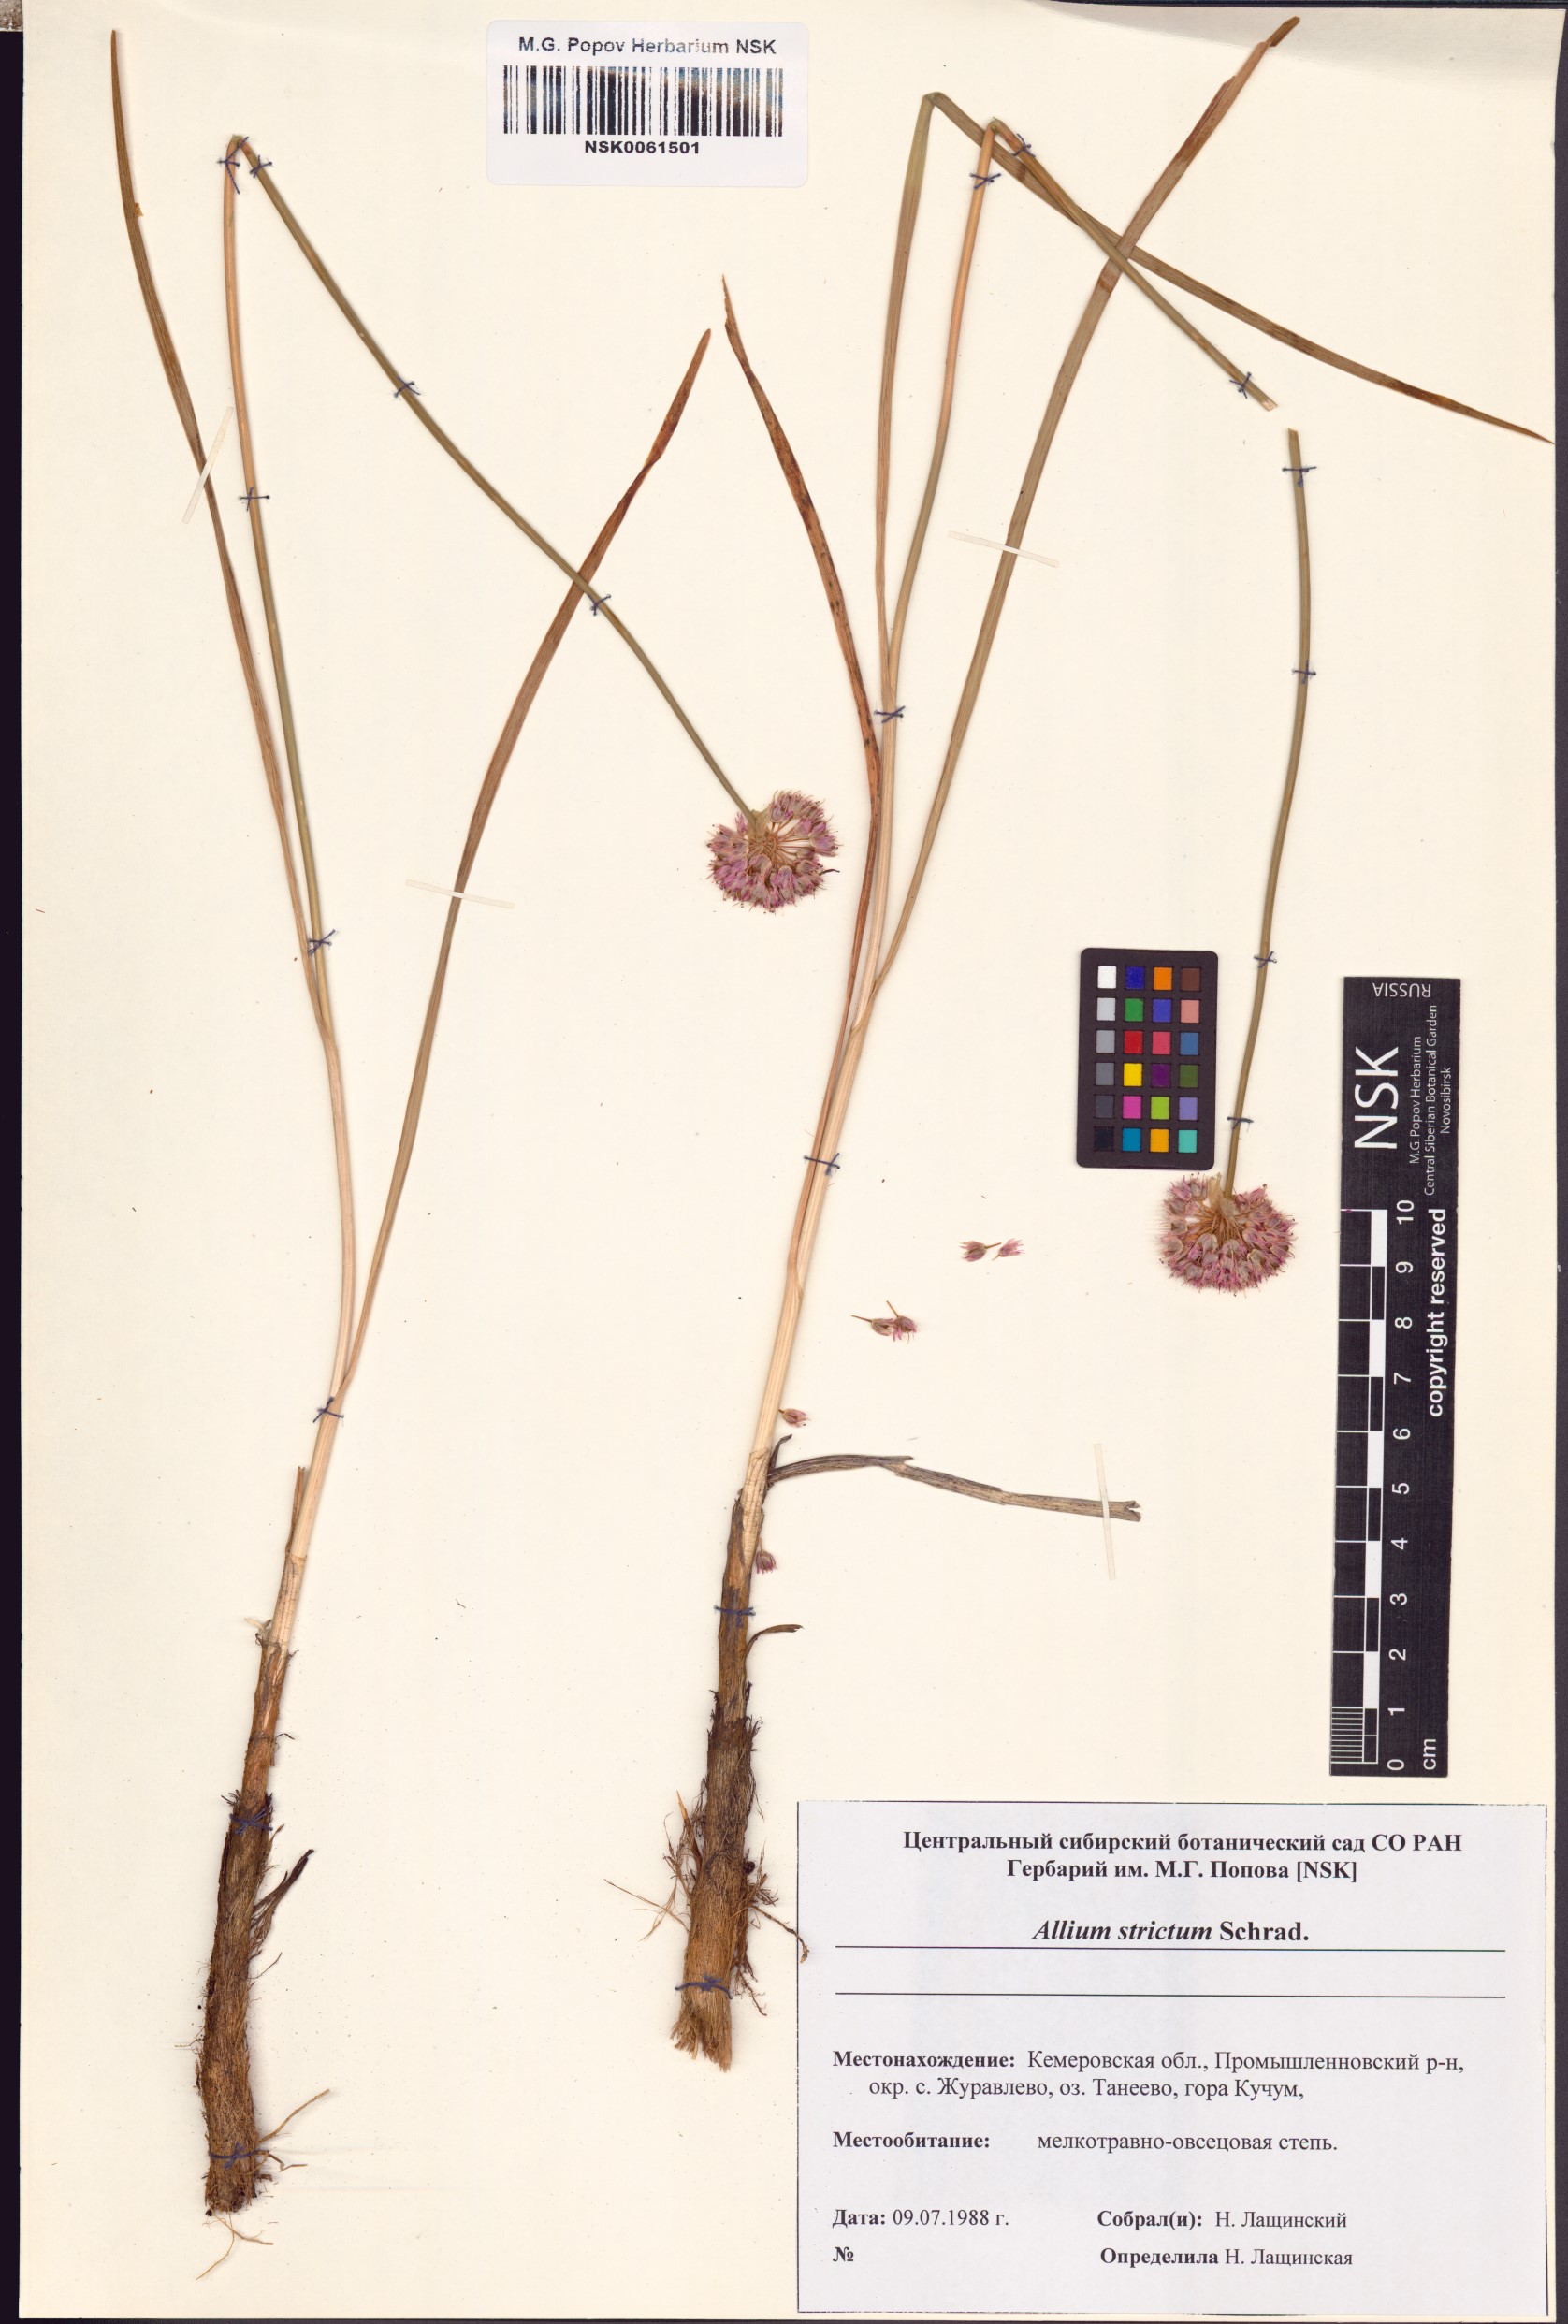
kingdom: Plantae
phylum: Tracheophyta
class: Liliopsida
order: Asparagales
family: Amaryllidaceae
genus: Allium
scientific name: Allium strictum
